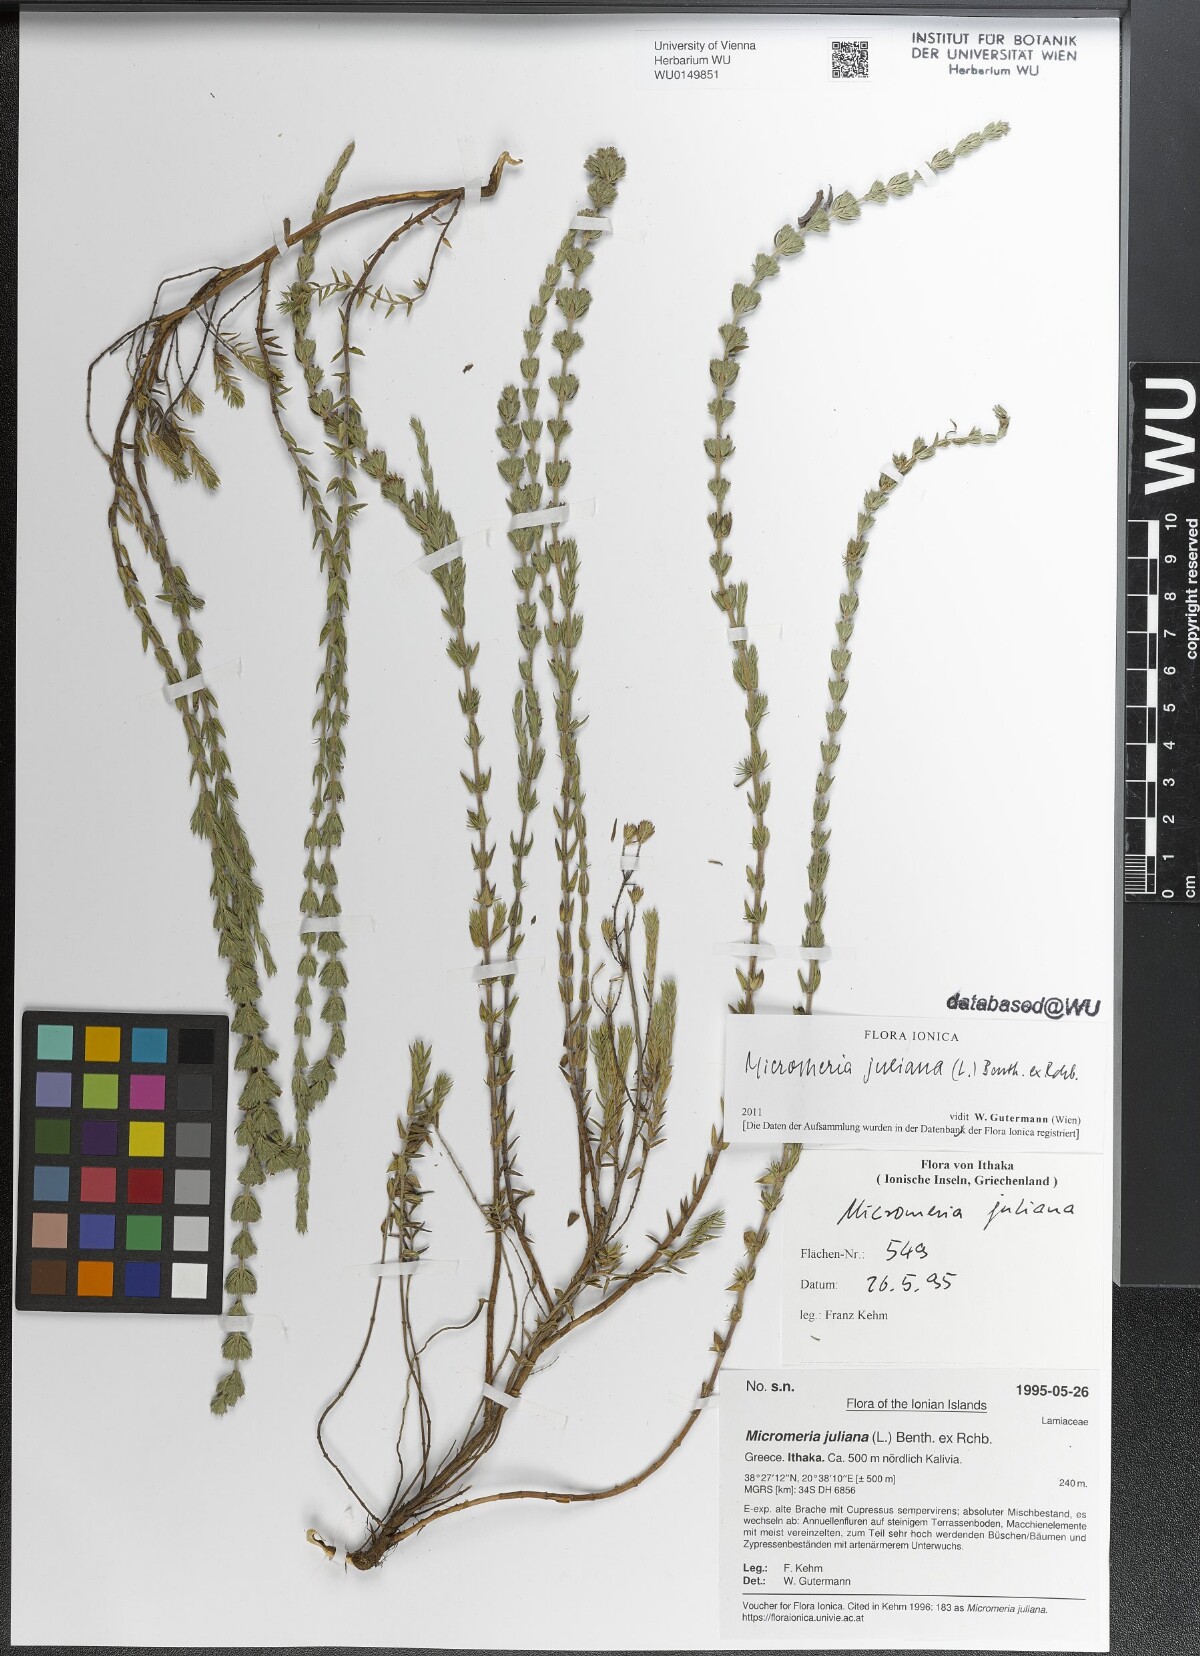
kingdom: Plantae
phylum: Tracheophyta
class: Magnoliopsida
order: Lamiales
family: Lamiaceae
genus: Micromeria
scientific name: Micromeria juliana
